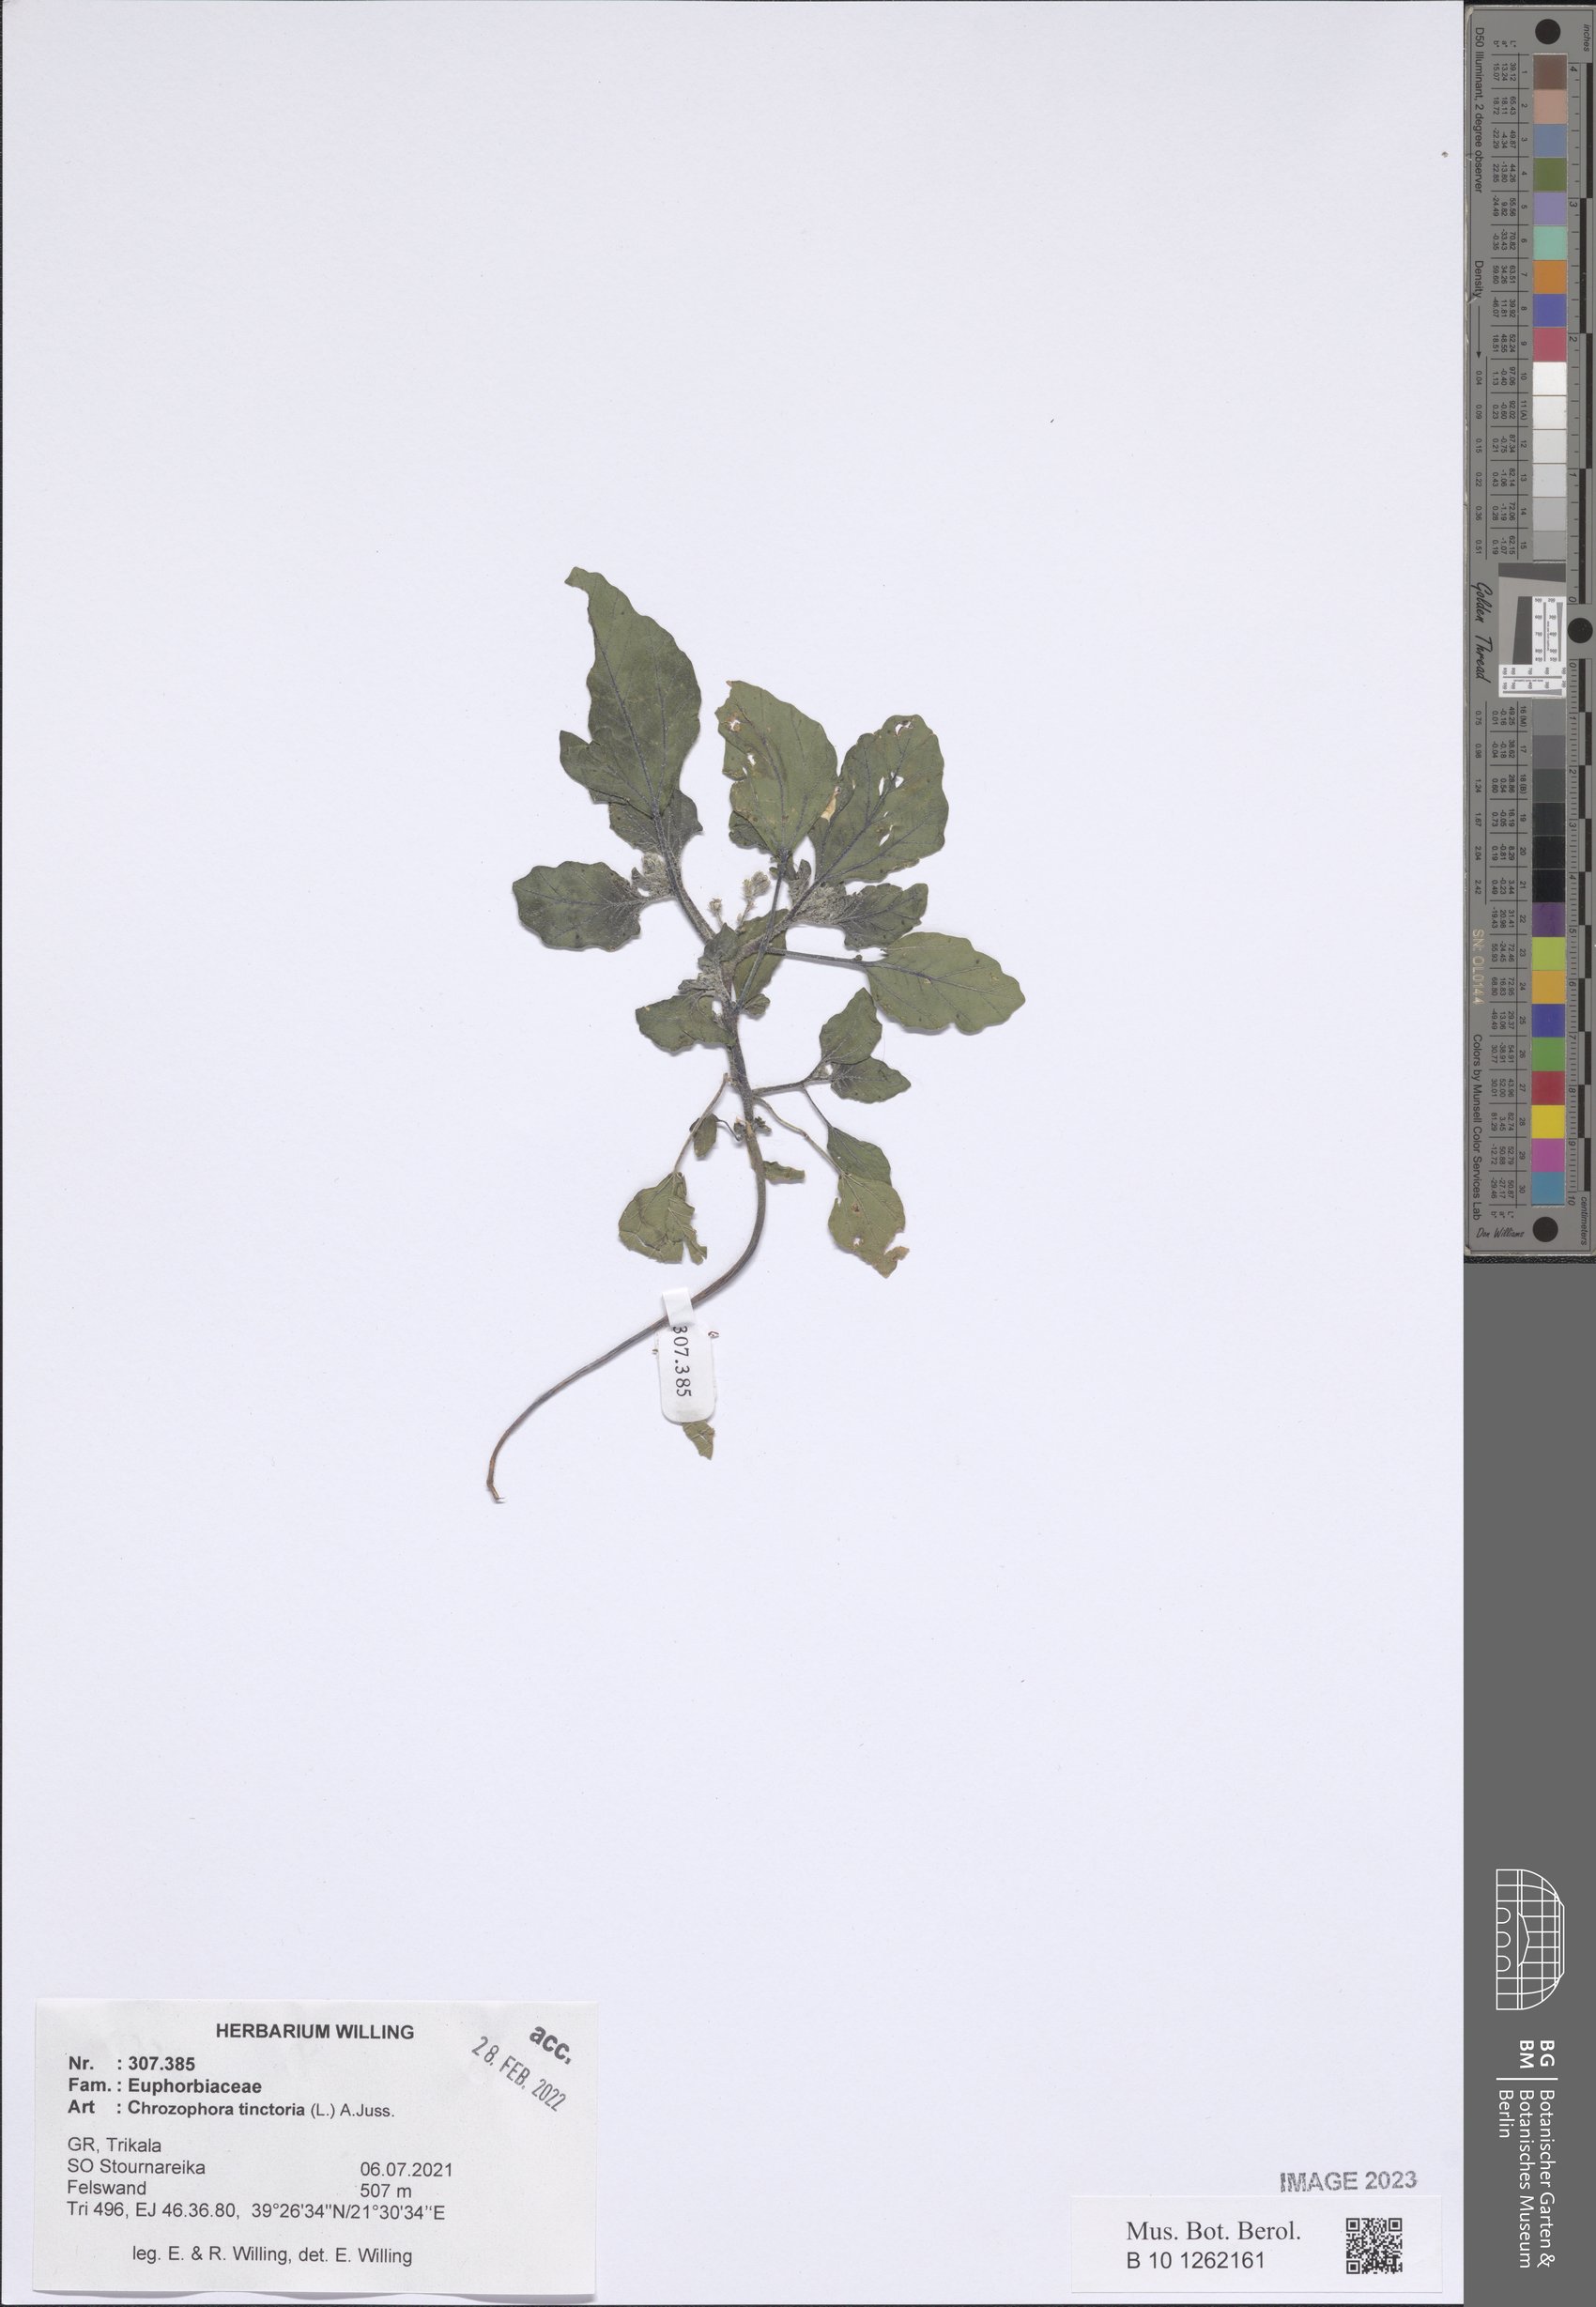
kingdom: Plantae
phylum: Tracheophyta
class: Magnoliopsida
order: Malpighiales
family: Euphorbiaceae
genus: Chrozophora
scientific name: Chrozophora tinctoria
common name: Dyer's litmus
